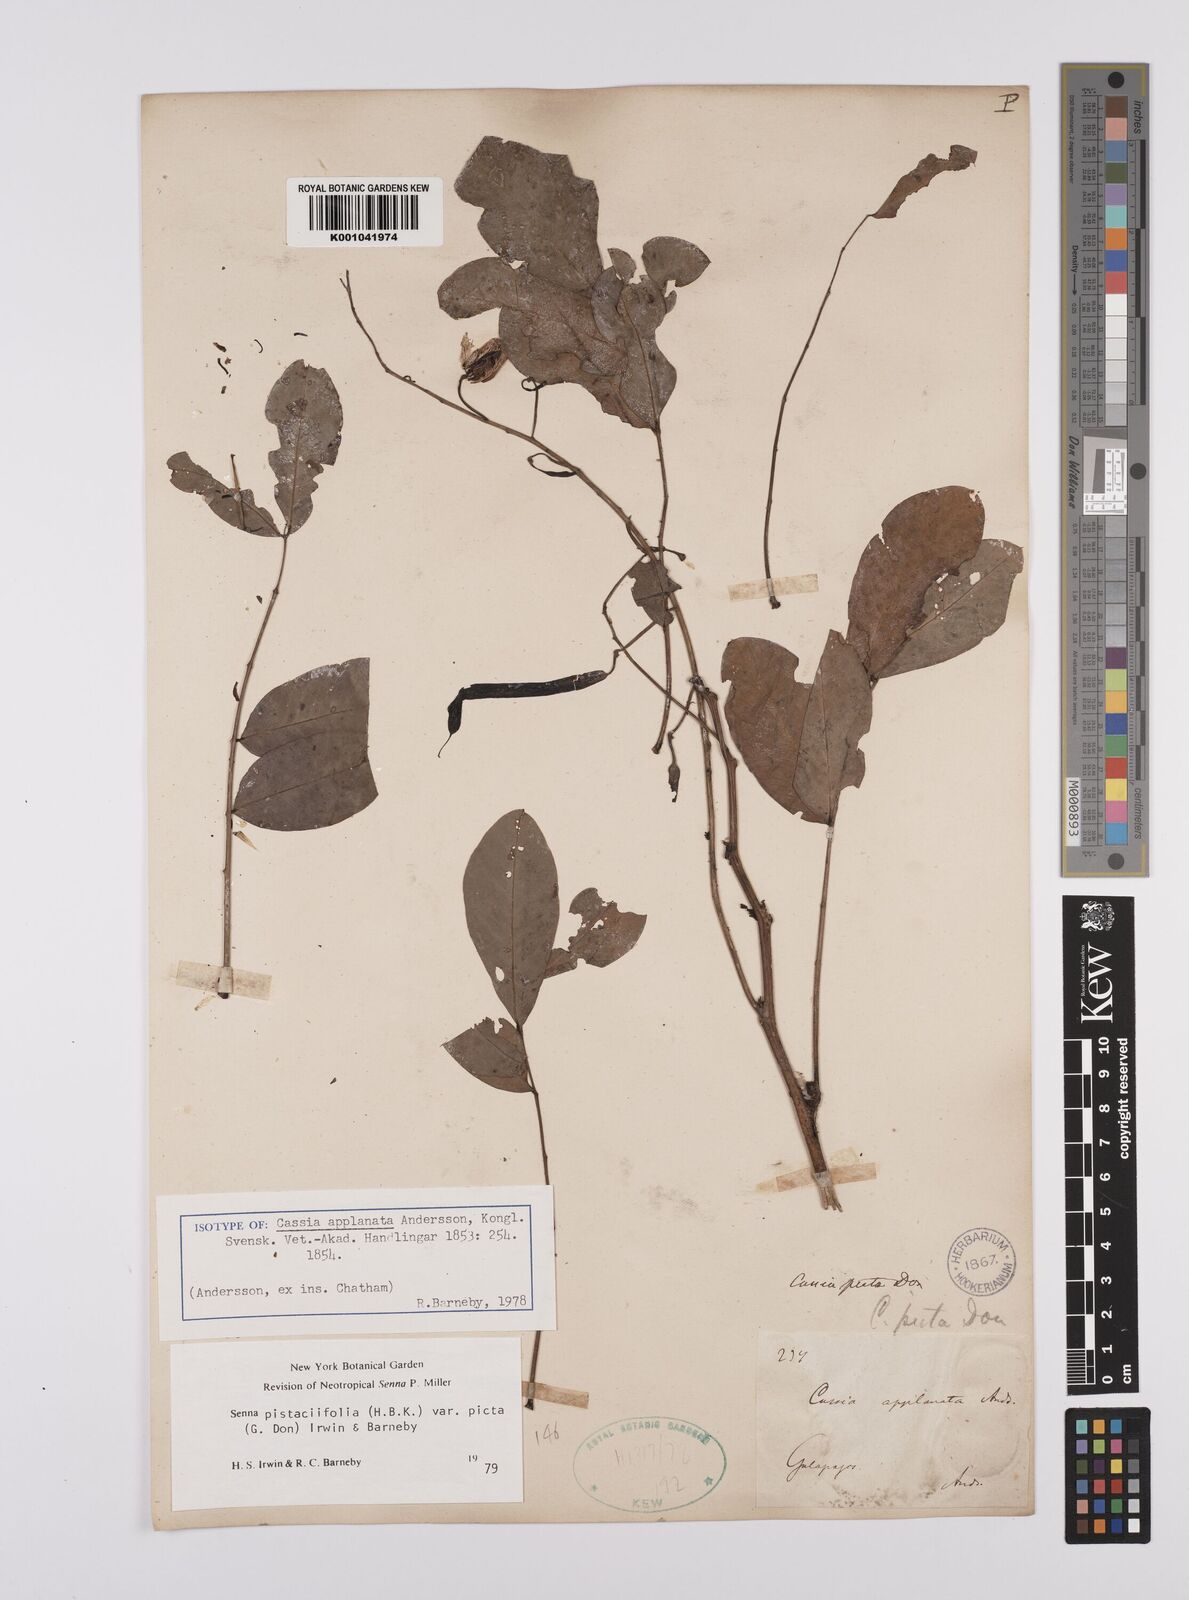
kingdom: Plantae
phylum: Tracheophyta
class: Magnoliopsida
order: Fabales
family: Fabaceae
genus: Senna
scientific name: Senna pistaciifolia
